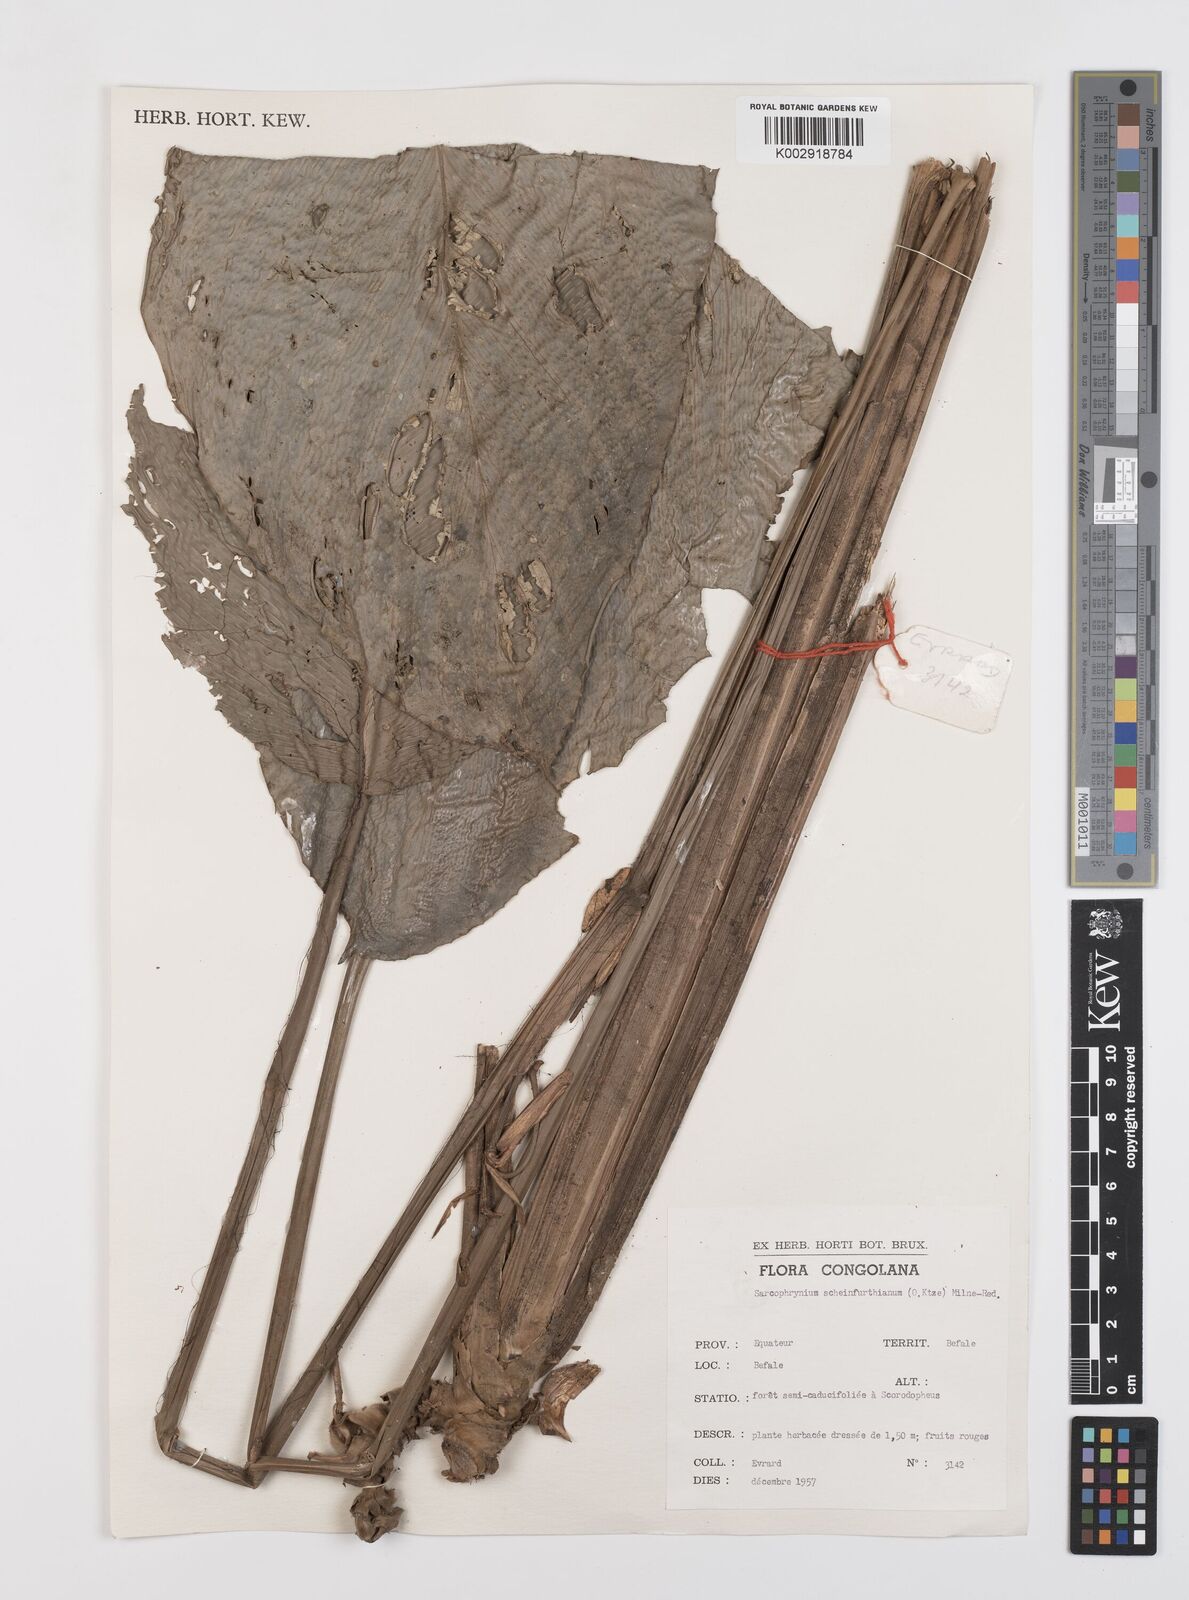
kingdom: Plantae
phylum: Tracheophyta
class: Liliopsida
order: Zingiberales
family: Marantaceae
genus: Sarcophrynium
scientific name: Sarcophrynium schweinfurthianum
